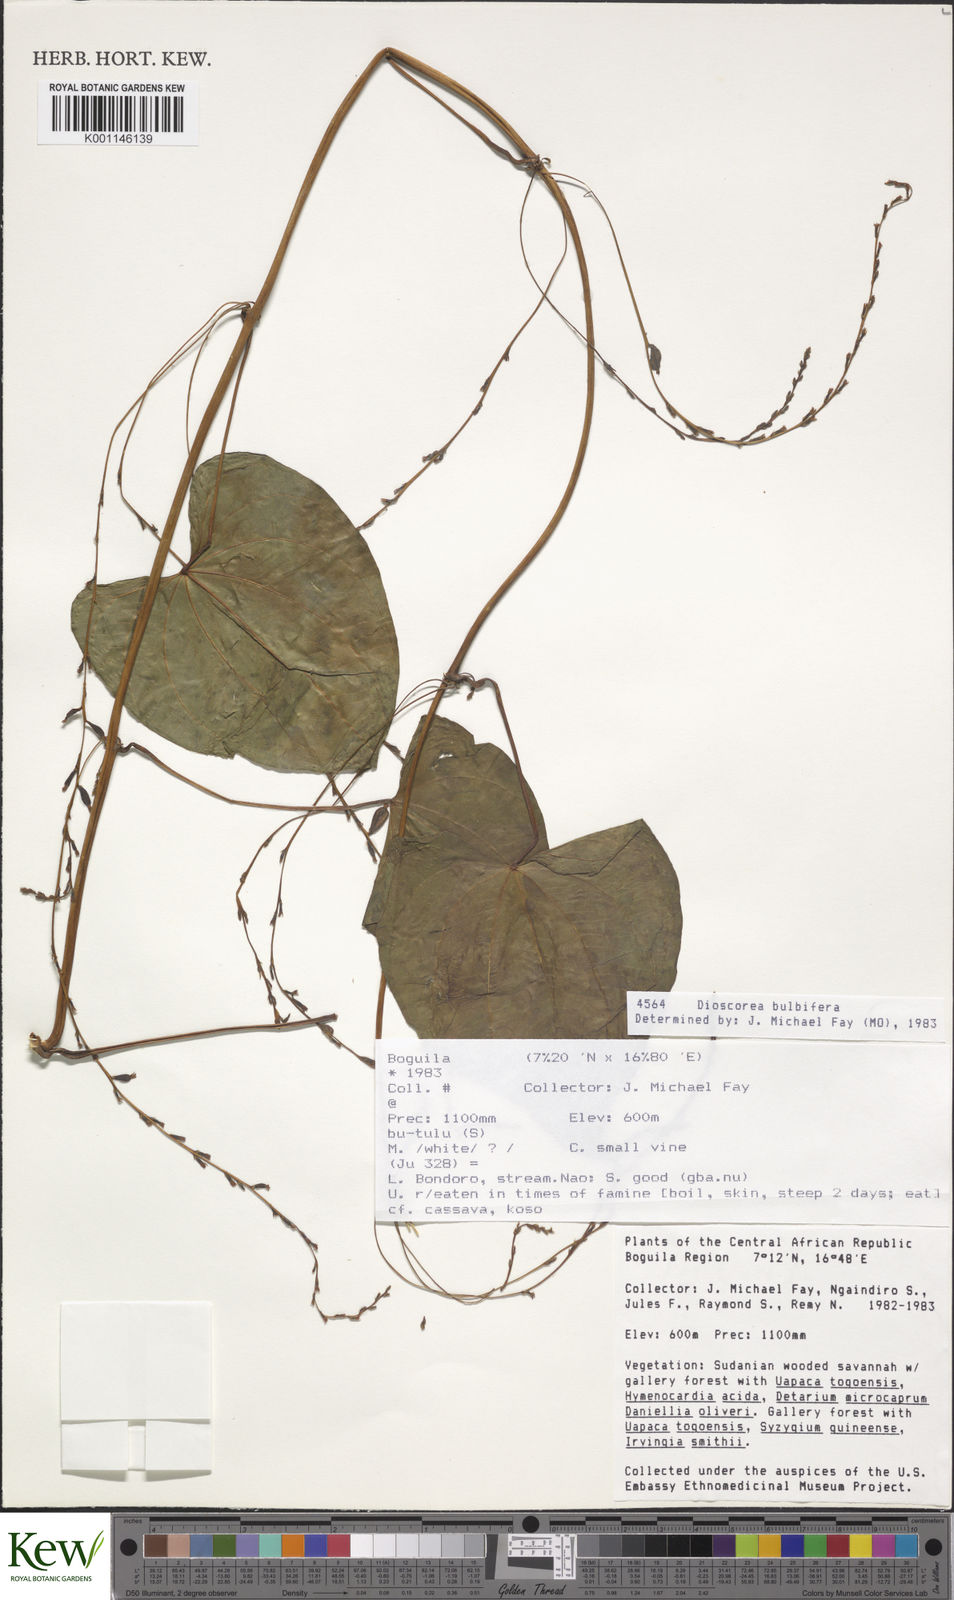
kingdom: Plantae
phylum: Tracheophyta
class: Liliopsida
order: Dioscoreales
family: Dioscoreaceae
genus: Dioscorea
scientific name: Dioscorea bulbifera
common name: Air yam
